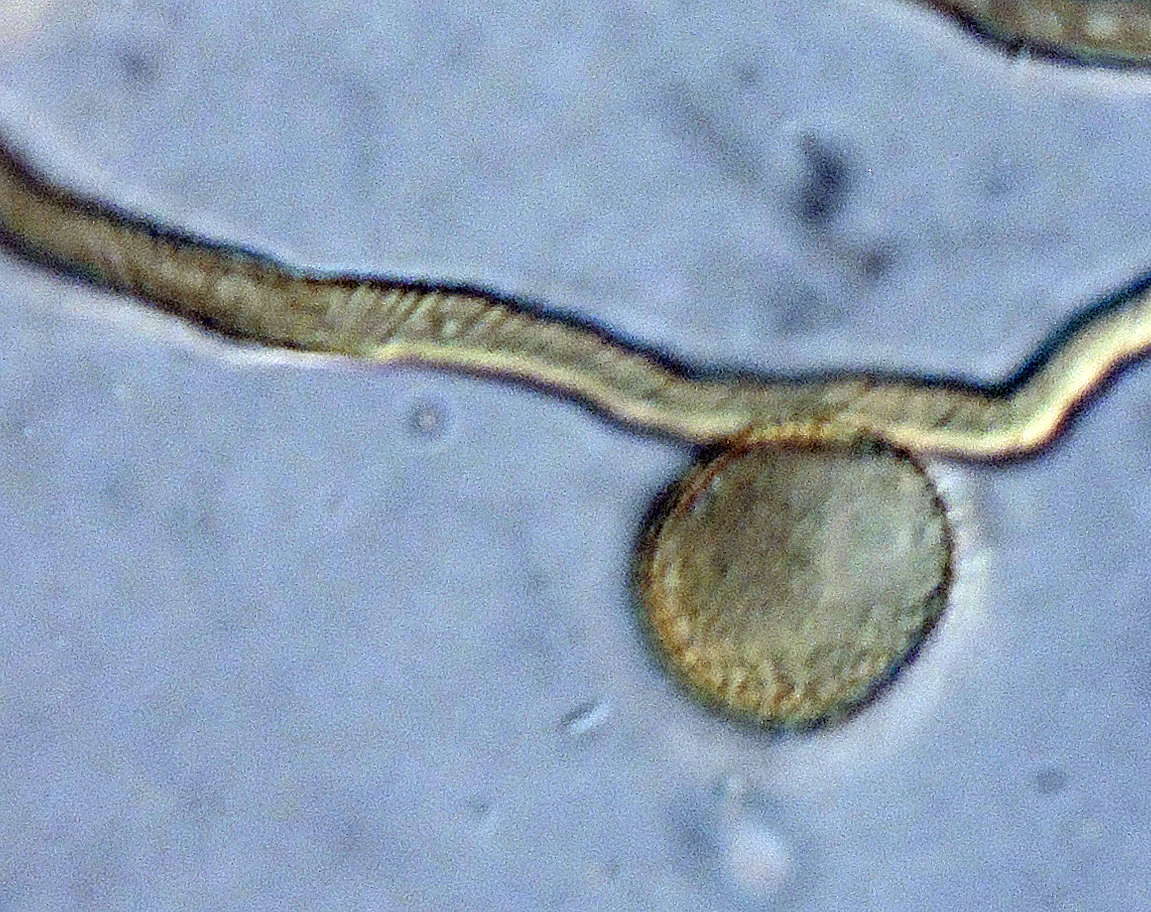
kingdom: Protozoa
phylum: Mycetozoa
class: Myxomycetes
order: Trichiales
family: Trichiaceae
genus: Trichia
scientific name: Trichia fimicola
